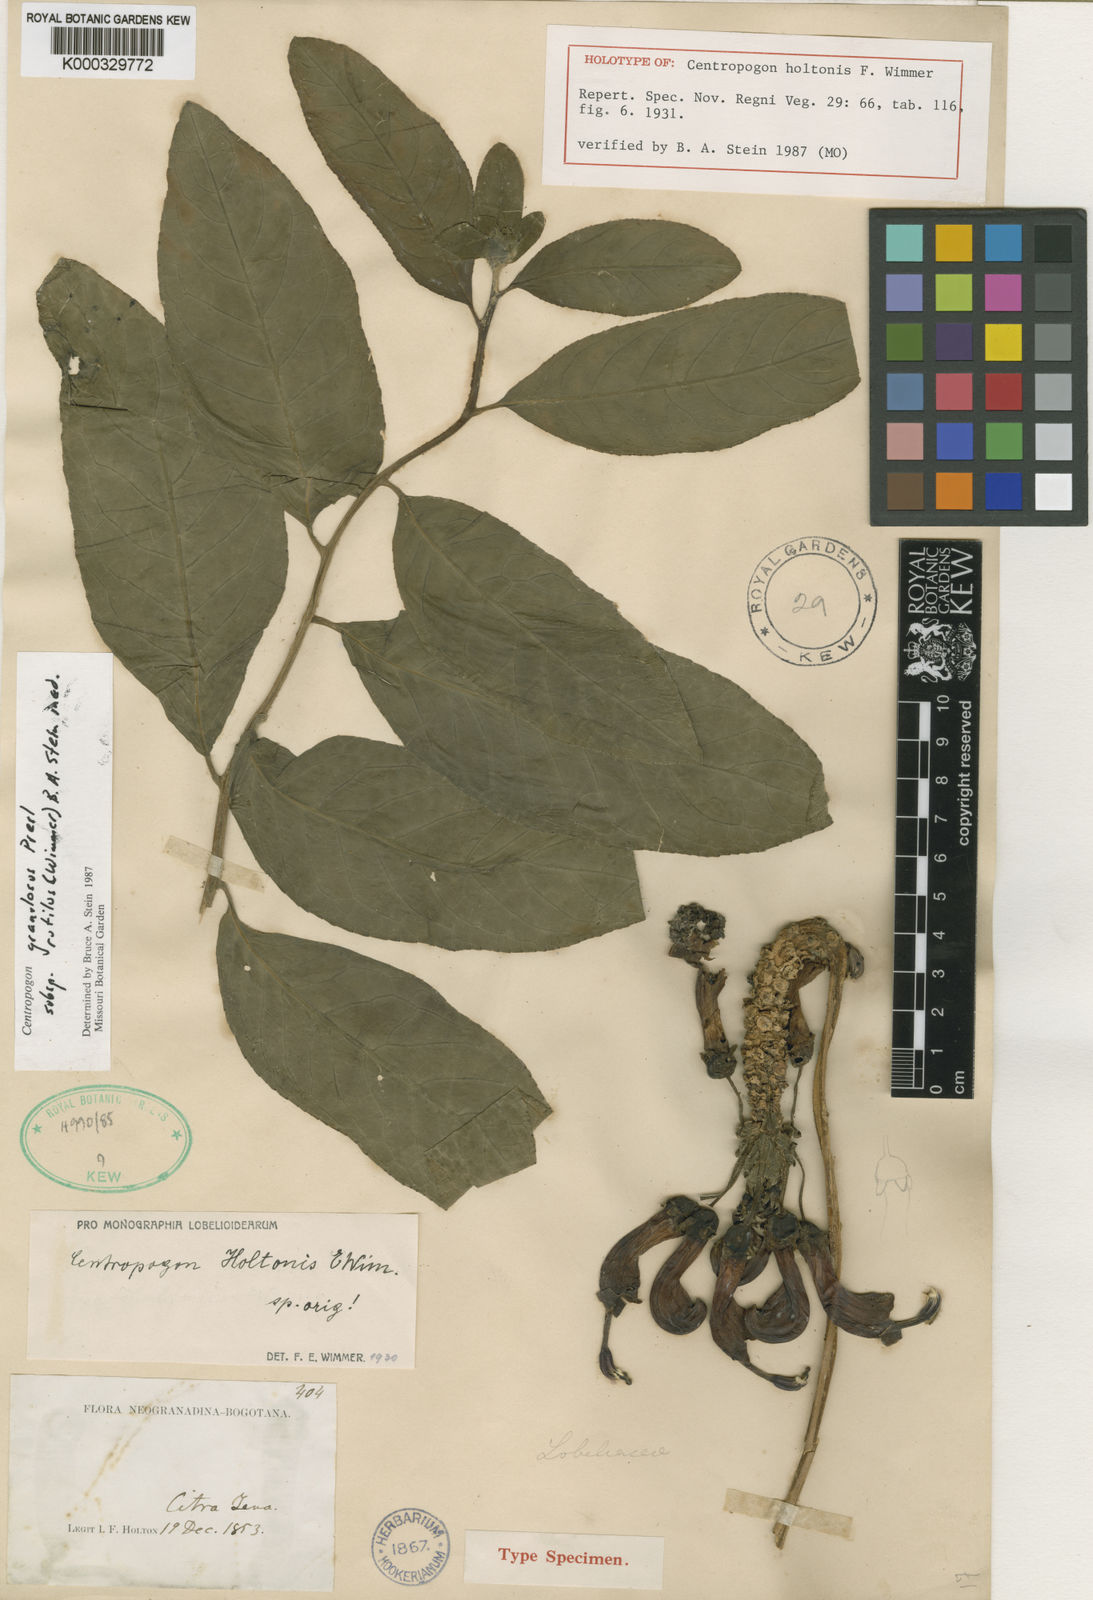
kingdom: Plantae
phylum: Tracheophyta
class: Magnoliopsida
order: Asterales
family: Campanulaceae
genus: Centropogon
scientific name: Centropogon granulosus
